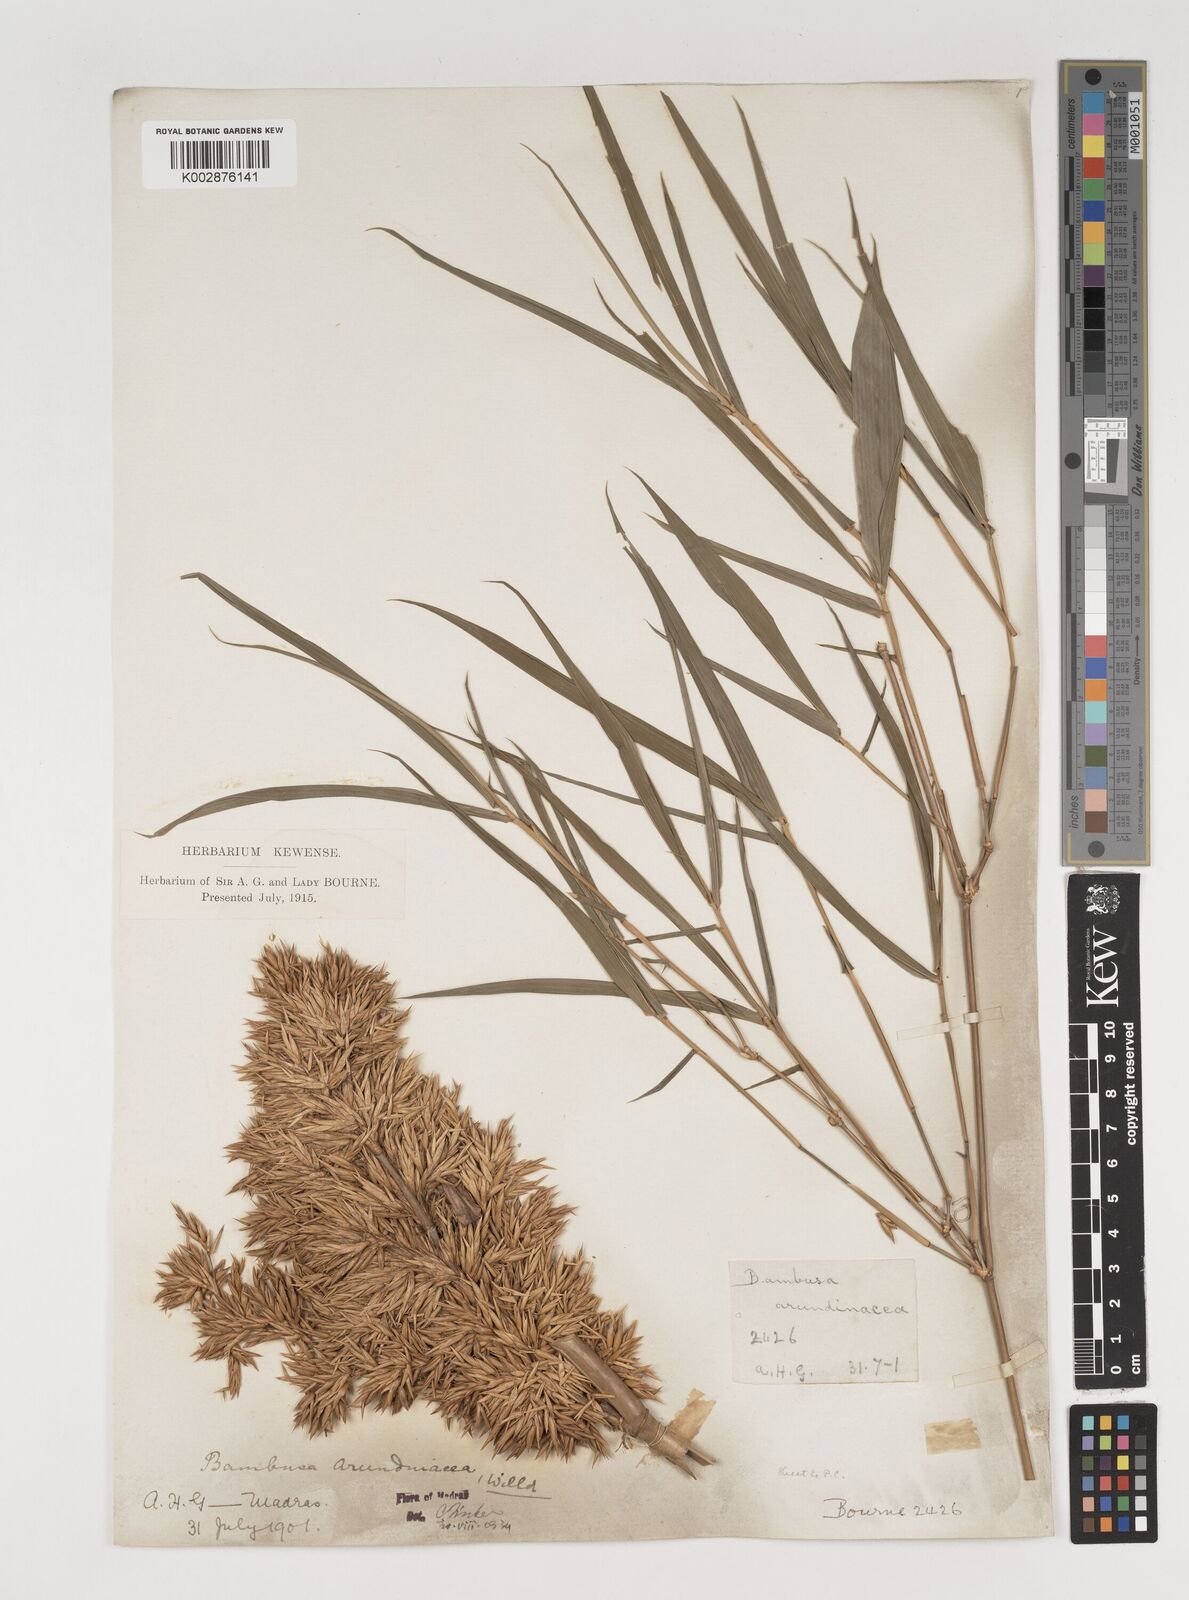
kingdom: Plantae
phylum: Tracheophyta
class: Liliopsida
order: Poales
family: Poaceae
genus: Bambusa
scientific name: Bambusa bambos
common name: Indian thorny bamboo
